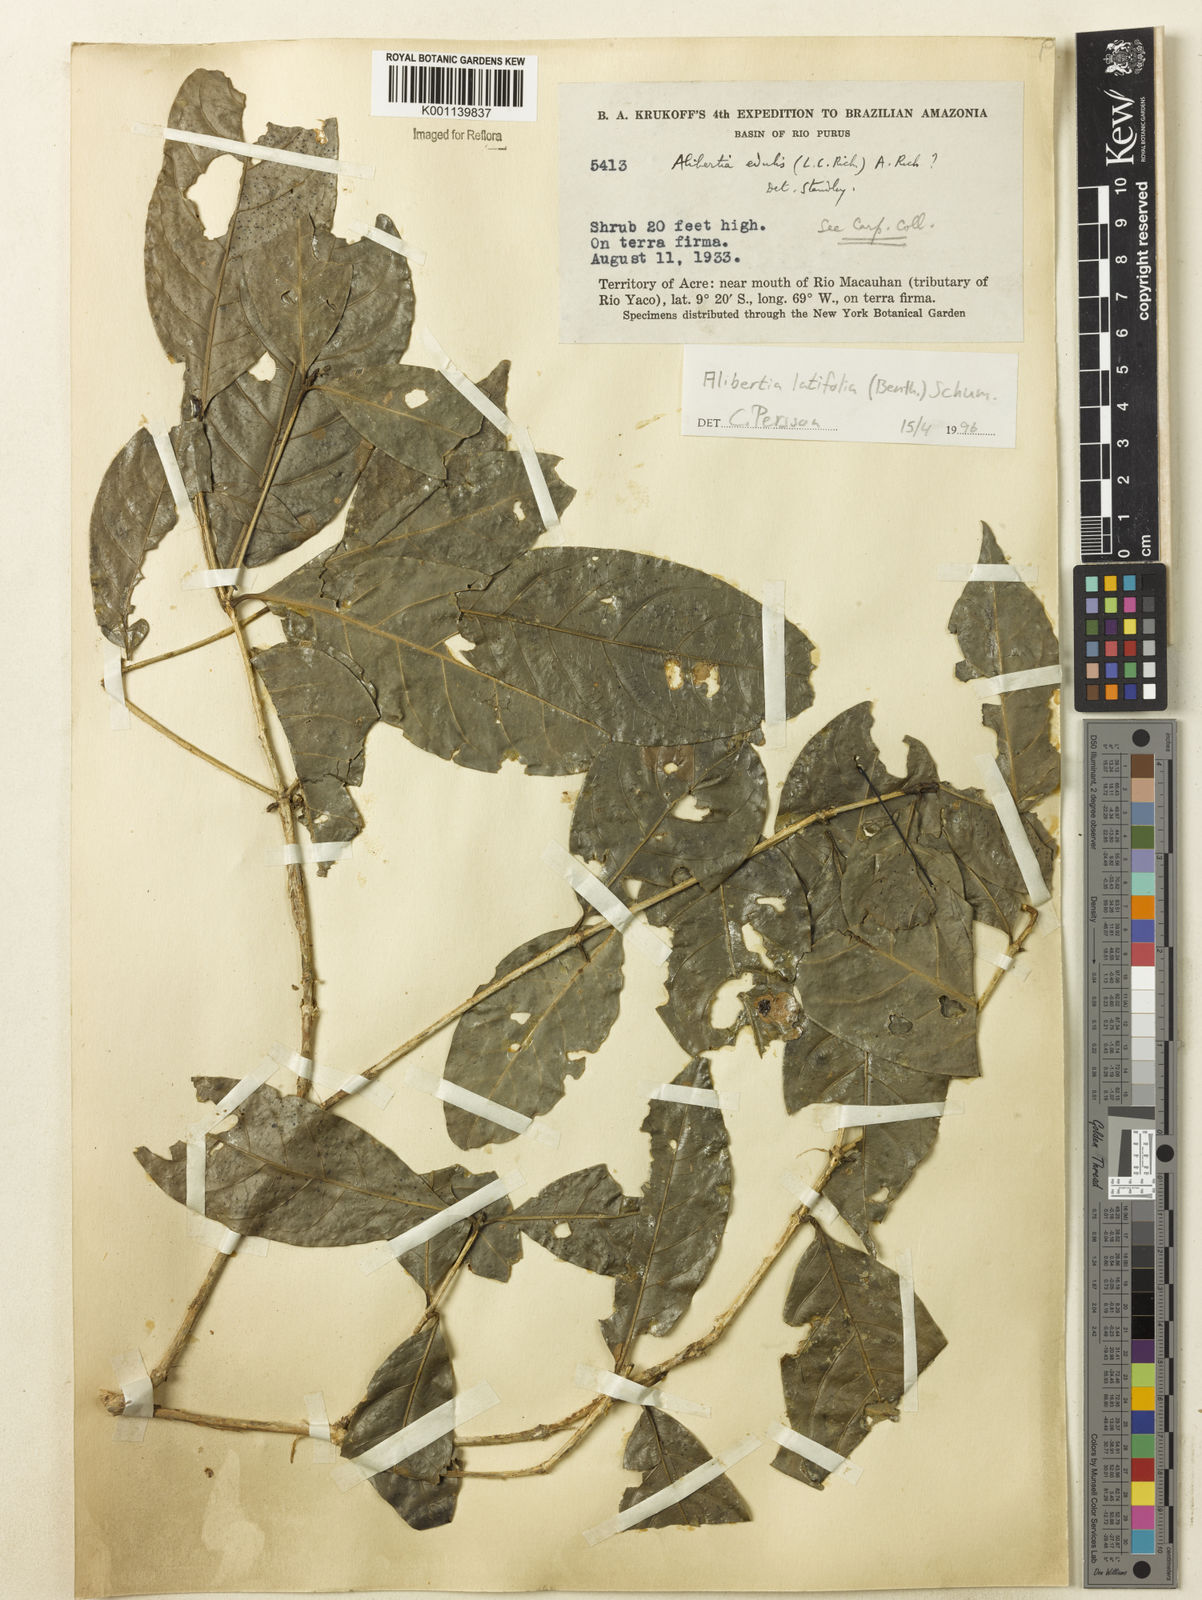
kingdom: Plantae
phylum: Tracheophyta
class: Magnoliopsida
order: Gentianales
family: Rubiaceae
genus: Alibertia
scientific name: Alibertia latifolia
